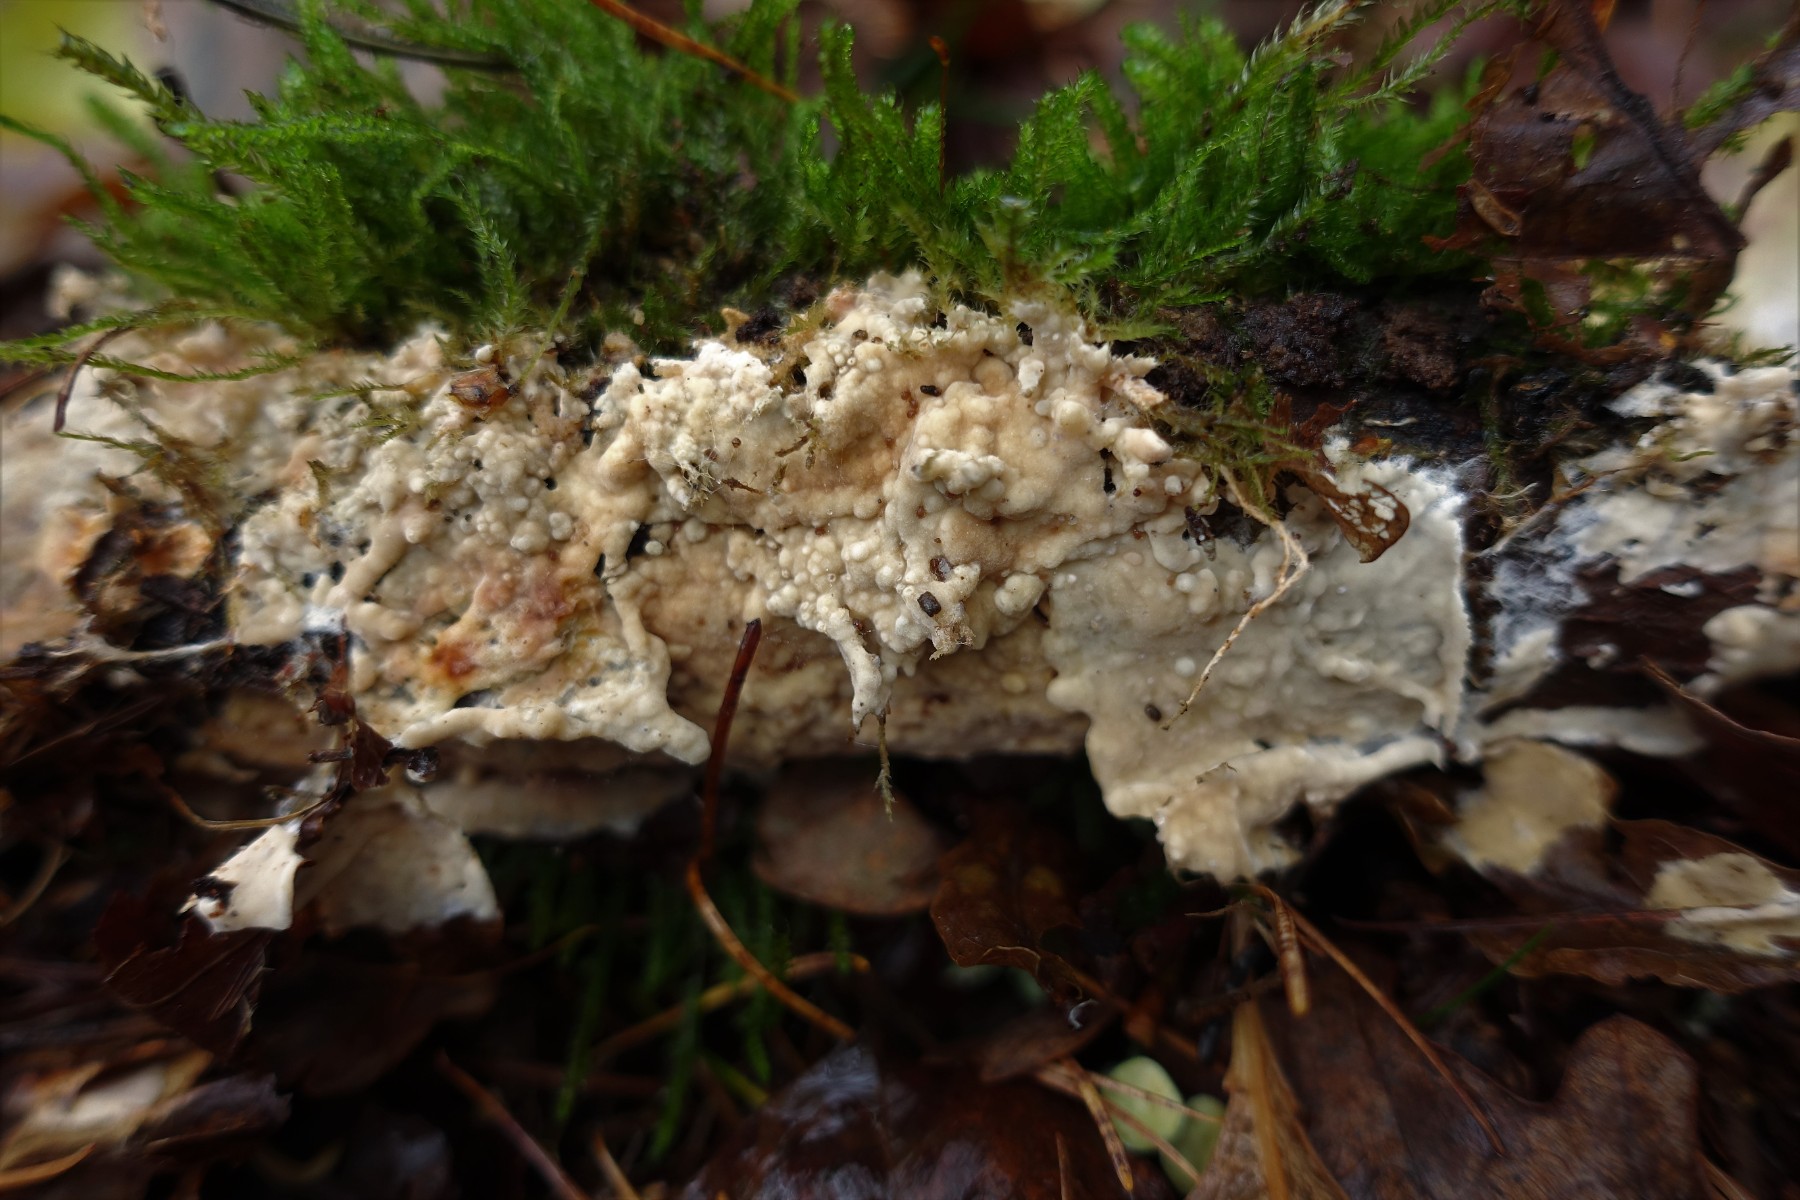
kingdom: Fungi
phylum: Basidiomycota
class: Agaricomycetes
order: Polyporales
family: Phanerochaetaceae
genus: Phanerochaete
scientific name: Phanerochaete velutina
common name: dunet randtråd
